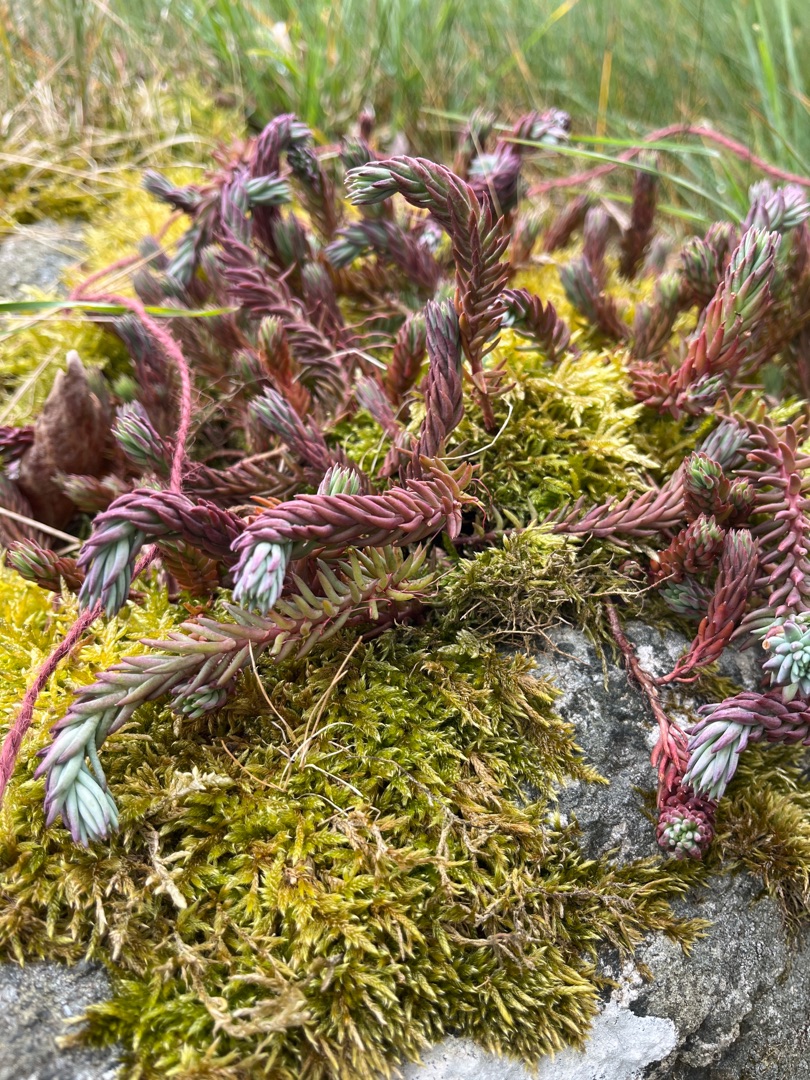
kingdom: Plantae
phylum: Tracheophyta
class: Magnoliopsida
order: Saxifragales
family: Crassulaceae
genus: Petrosedum
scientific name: Petrosedum rupestre
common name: Bjerg-stenurt
